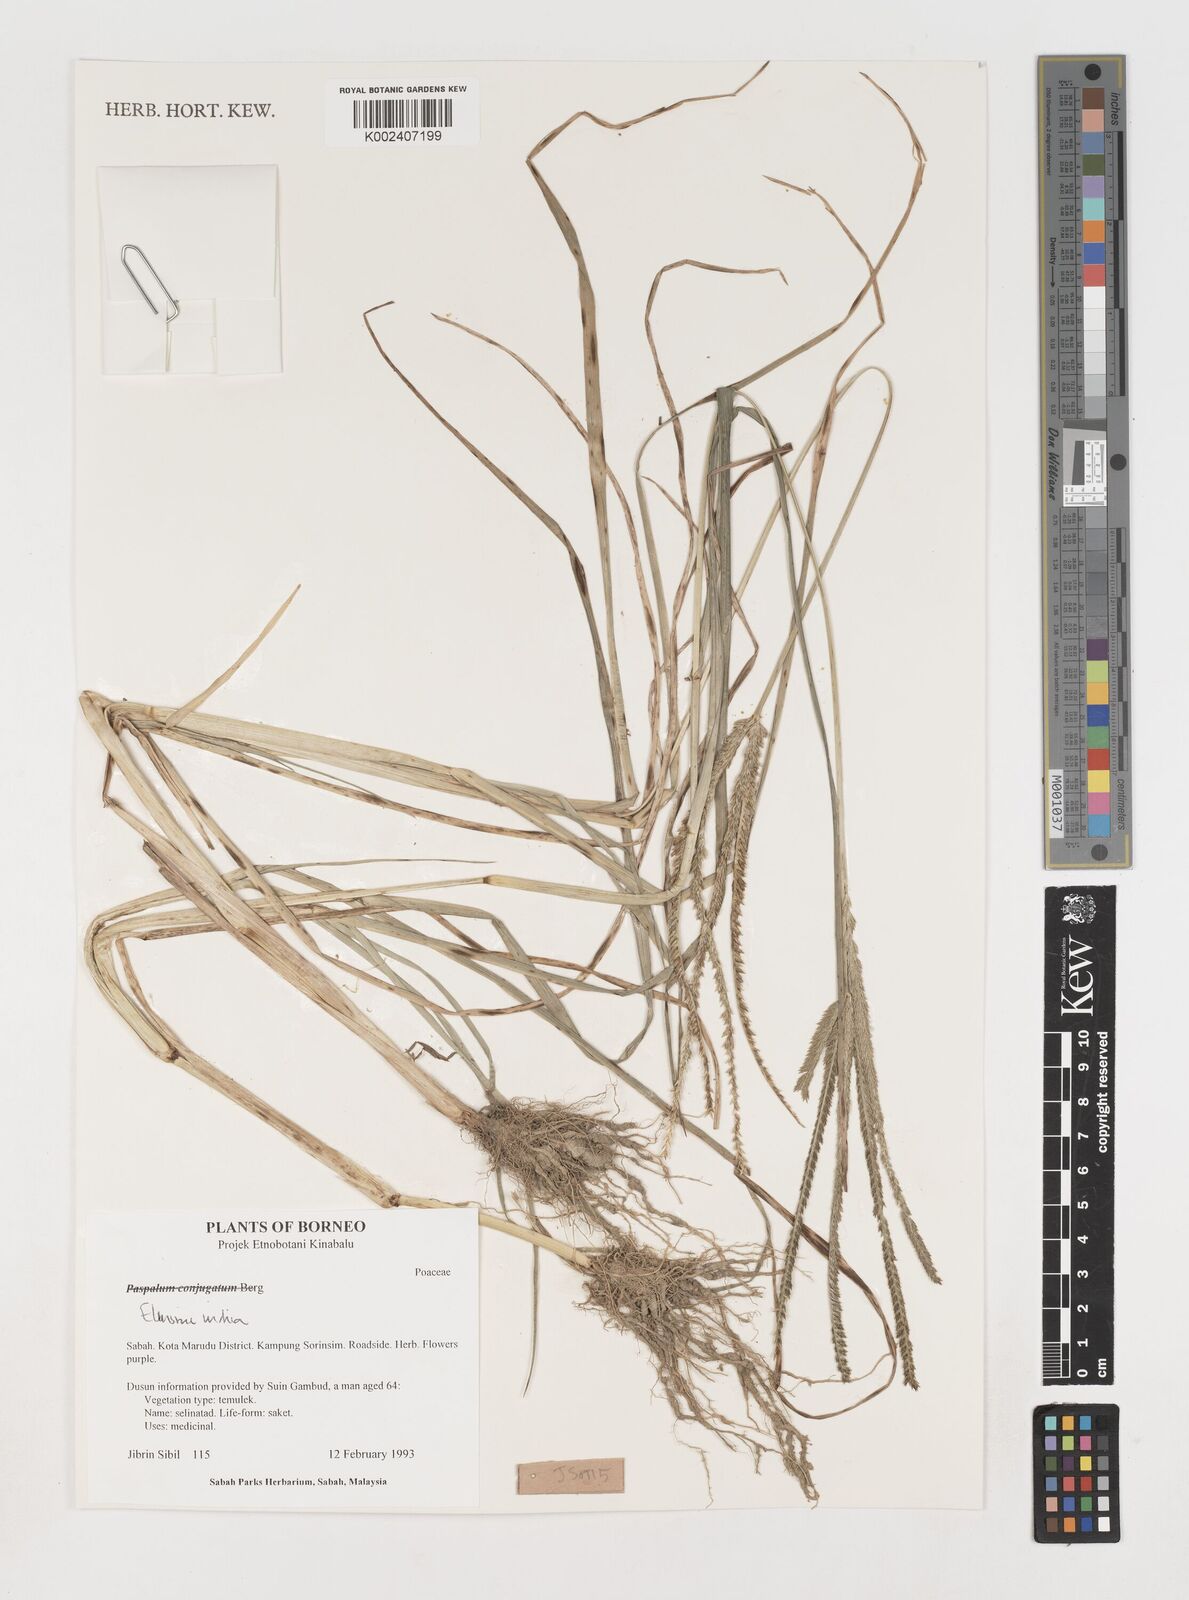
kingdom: Plantae
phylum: Tracheophyta
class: Liliopsida
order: Poales
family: Poaceae
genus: Eleusine
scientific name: Eleusine indica
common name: Yard-grass
